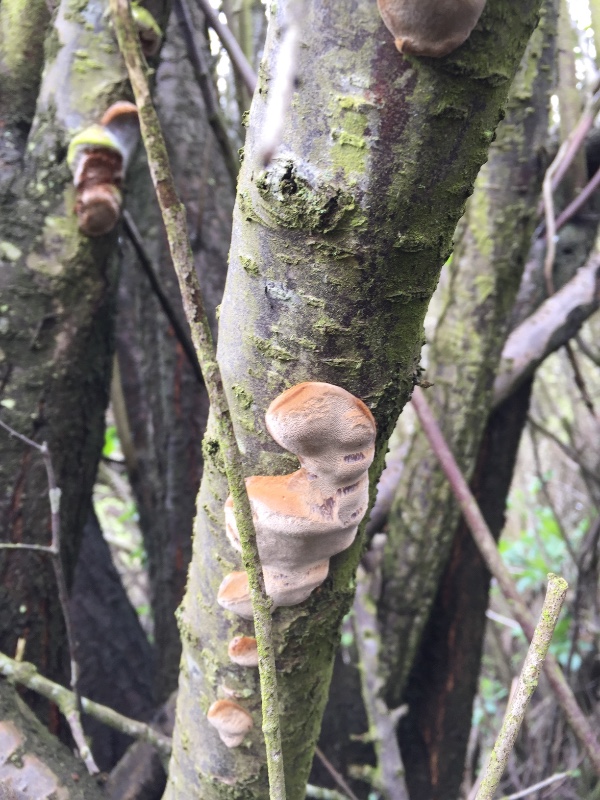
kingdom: Fungi
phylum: Basidiomycota
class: Agaricomycetes
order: Hymenochaetales
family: Hymenochaetaceae
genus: Phellinus
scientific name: Phellinus pomaceus
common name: blomme-ildporesvamp
